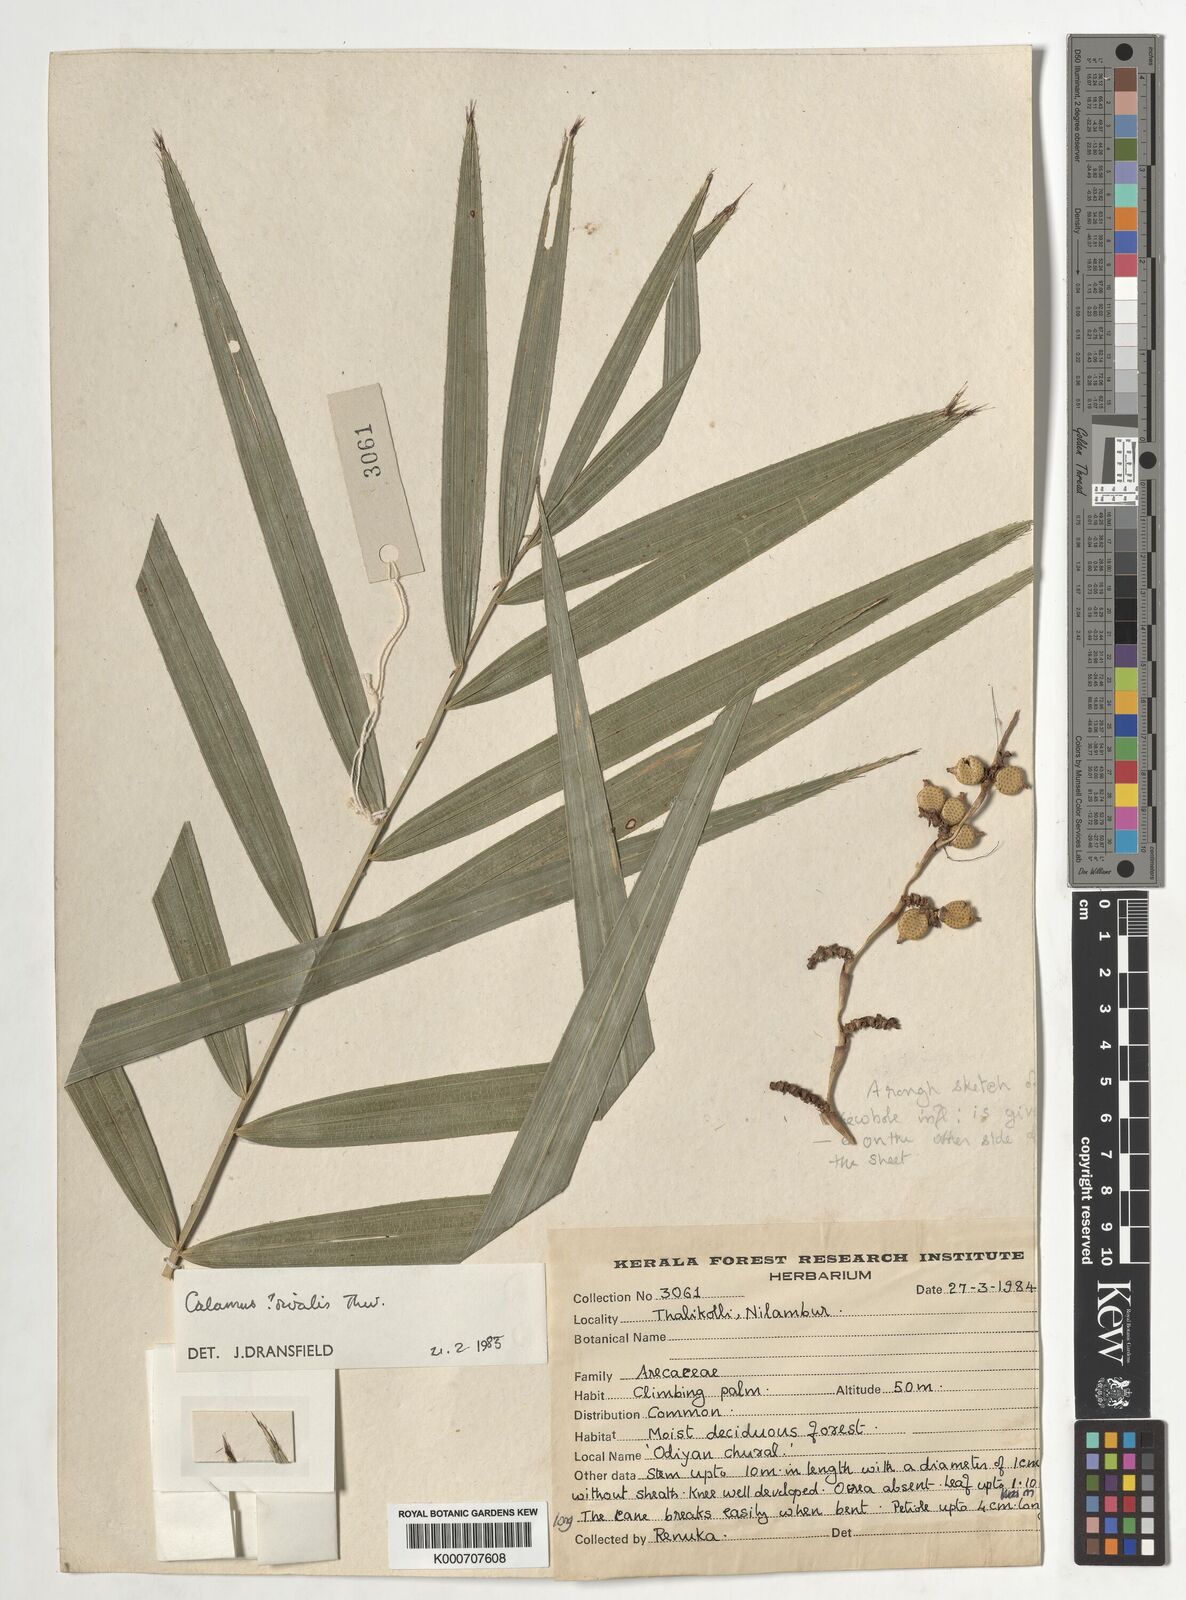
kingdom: Plantae
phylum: Tracheophyta
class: Liliopsida
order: Arecales
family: Arecaceae
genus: Calamus
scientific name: Calamus metzianus
